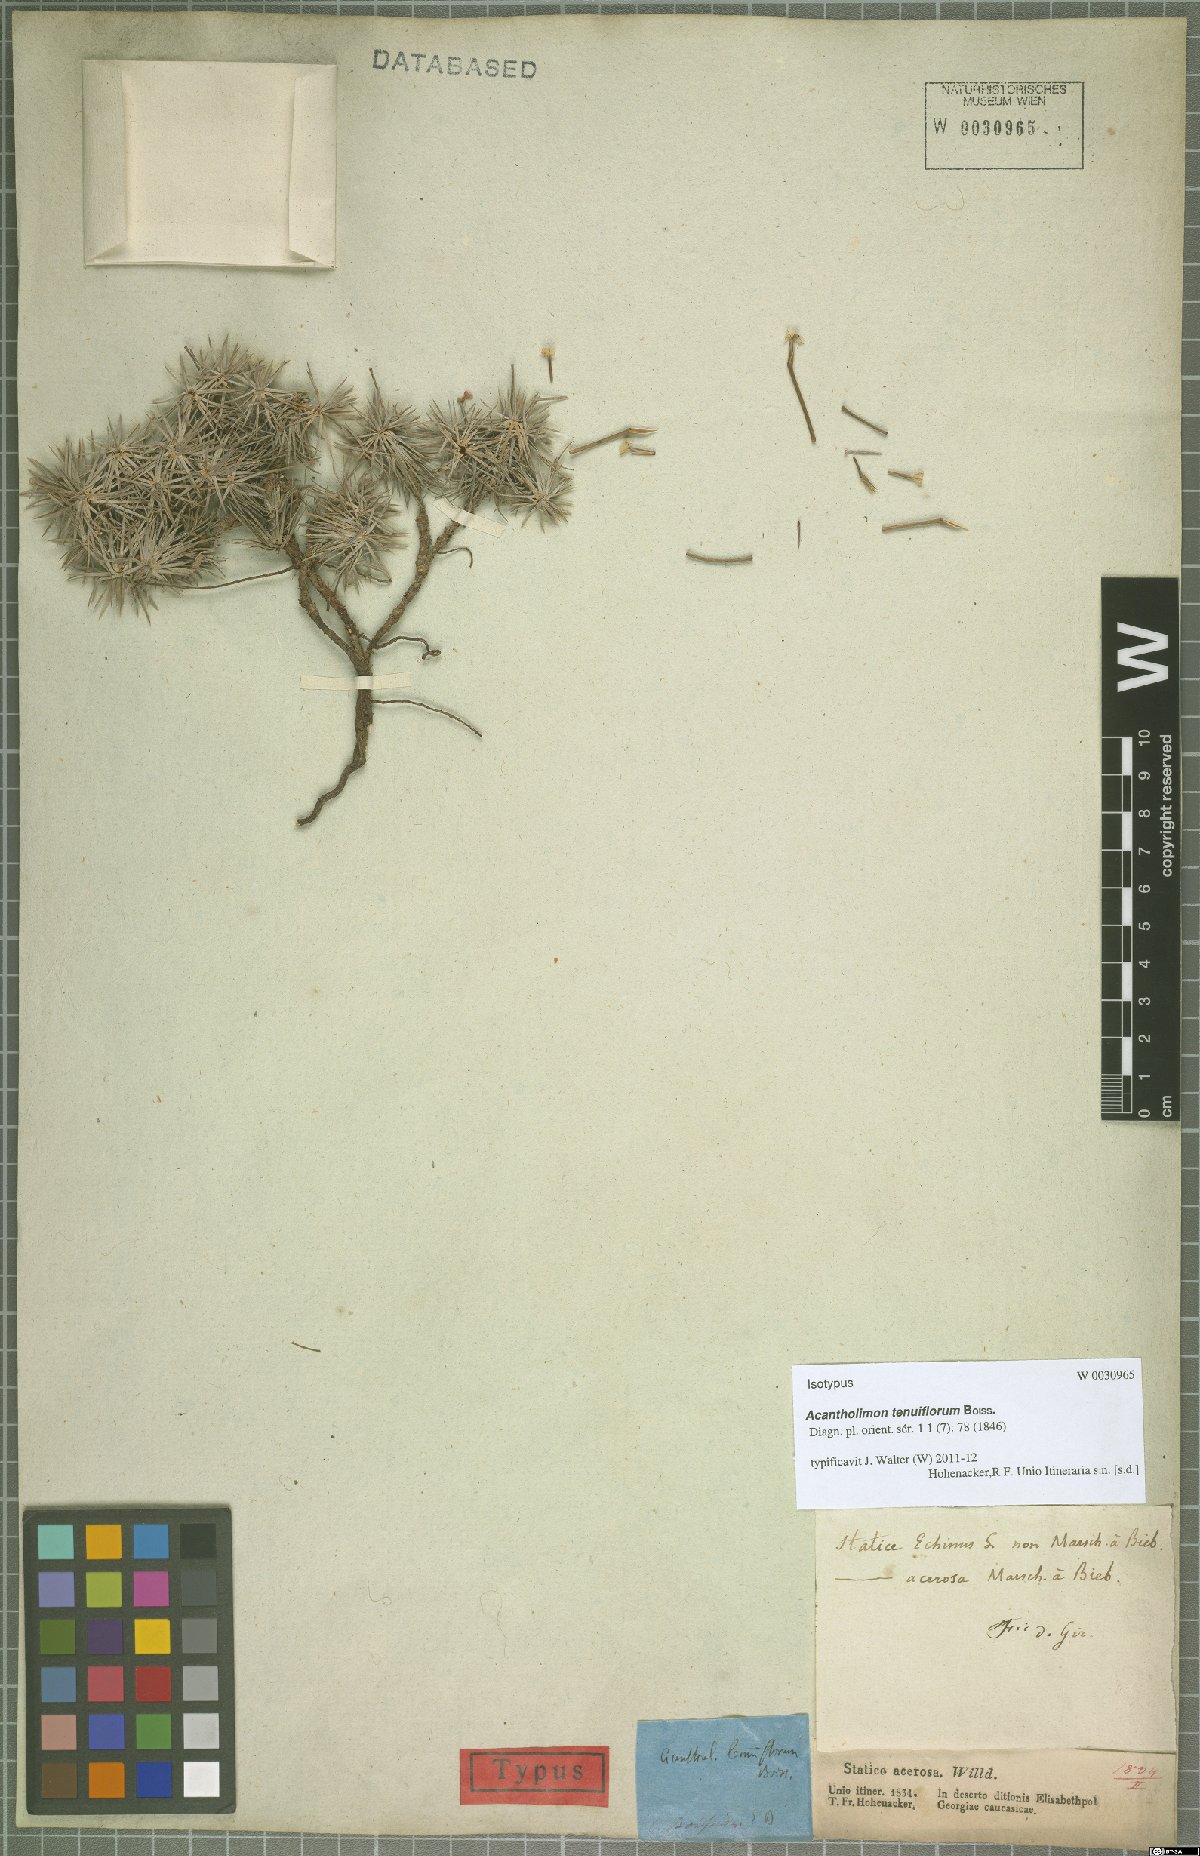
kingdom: Plantae
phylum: Tracheophyta
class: Magnoliopsida
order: Caryophyllales
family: Plumbaginaceae
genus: Acantholimon
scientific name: Acantholimon tenuiflorum
